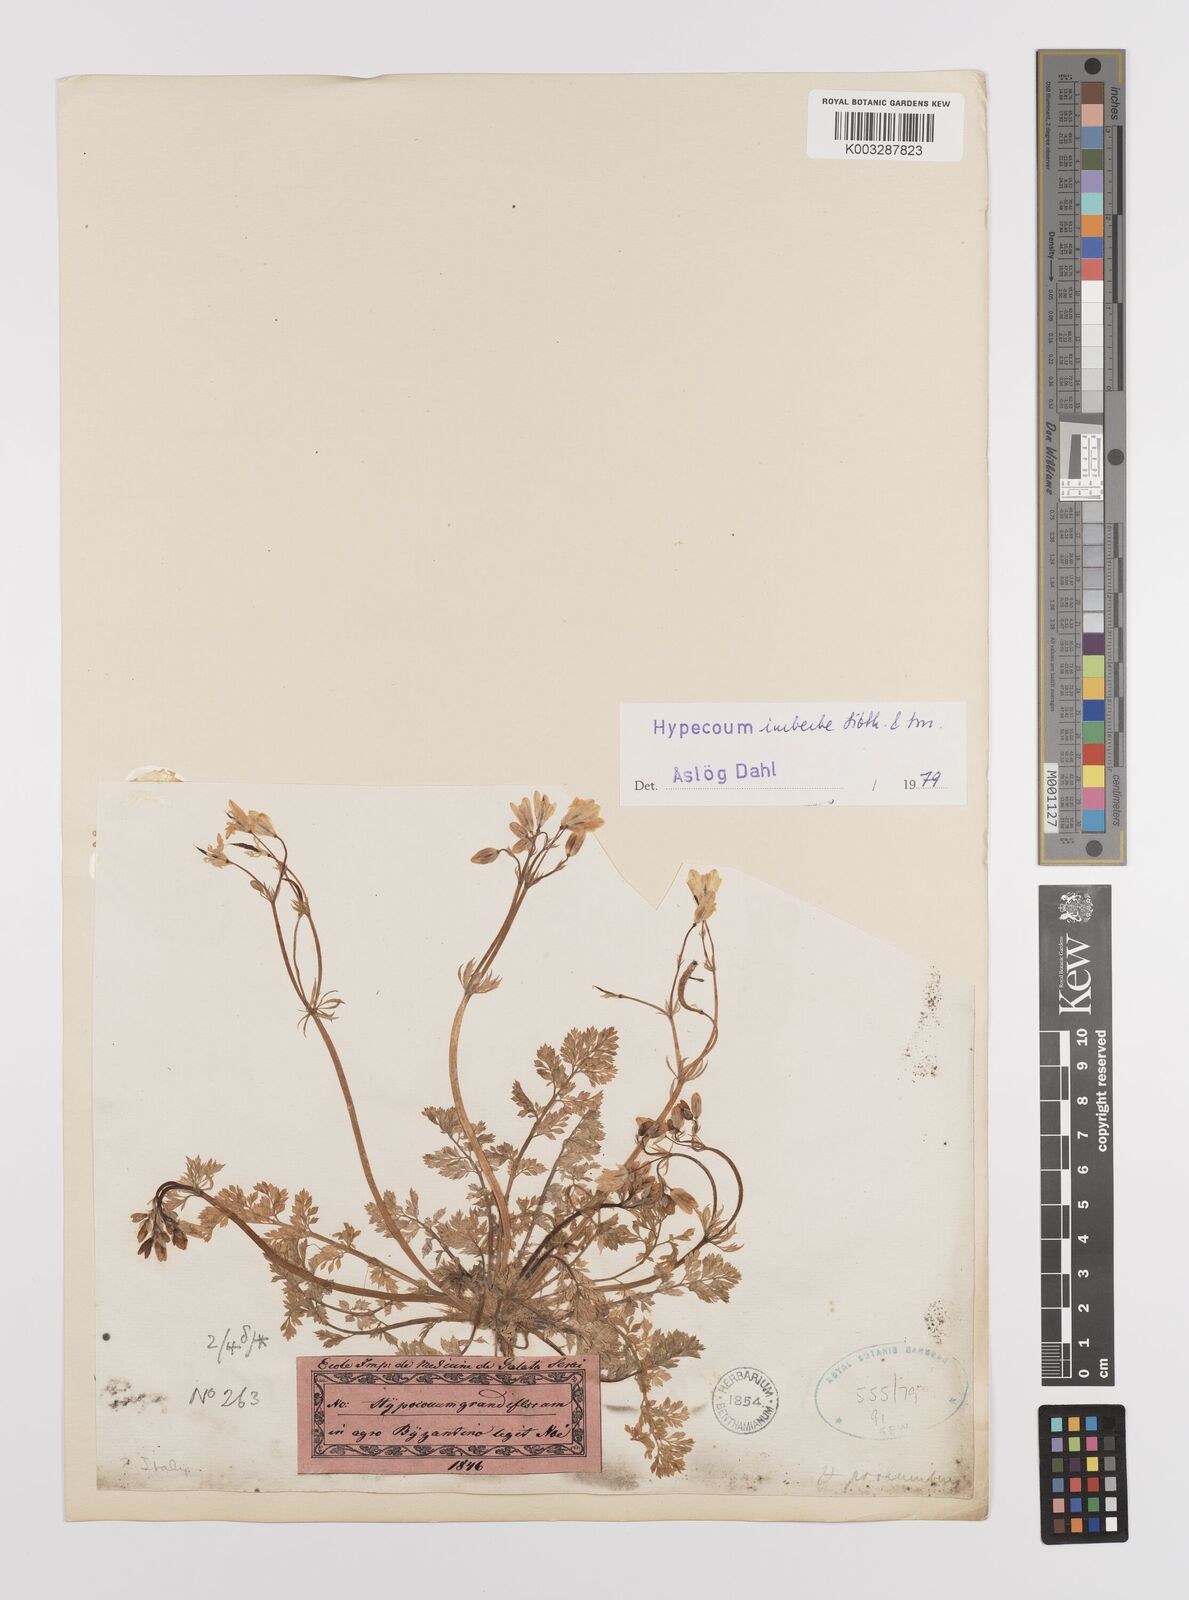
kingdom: Plantae
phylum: Tracheophyta
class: Magnoliopsida
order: Ranunculales
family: Papaveraceae
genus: Hypecoum
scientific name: Hypecoum imberbe
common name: Sicklefruit hypecoum
